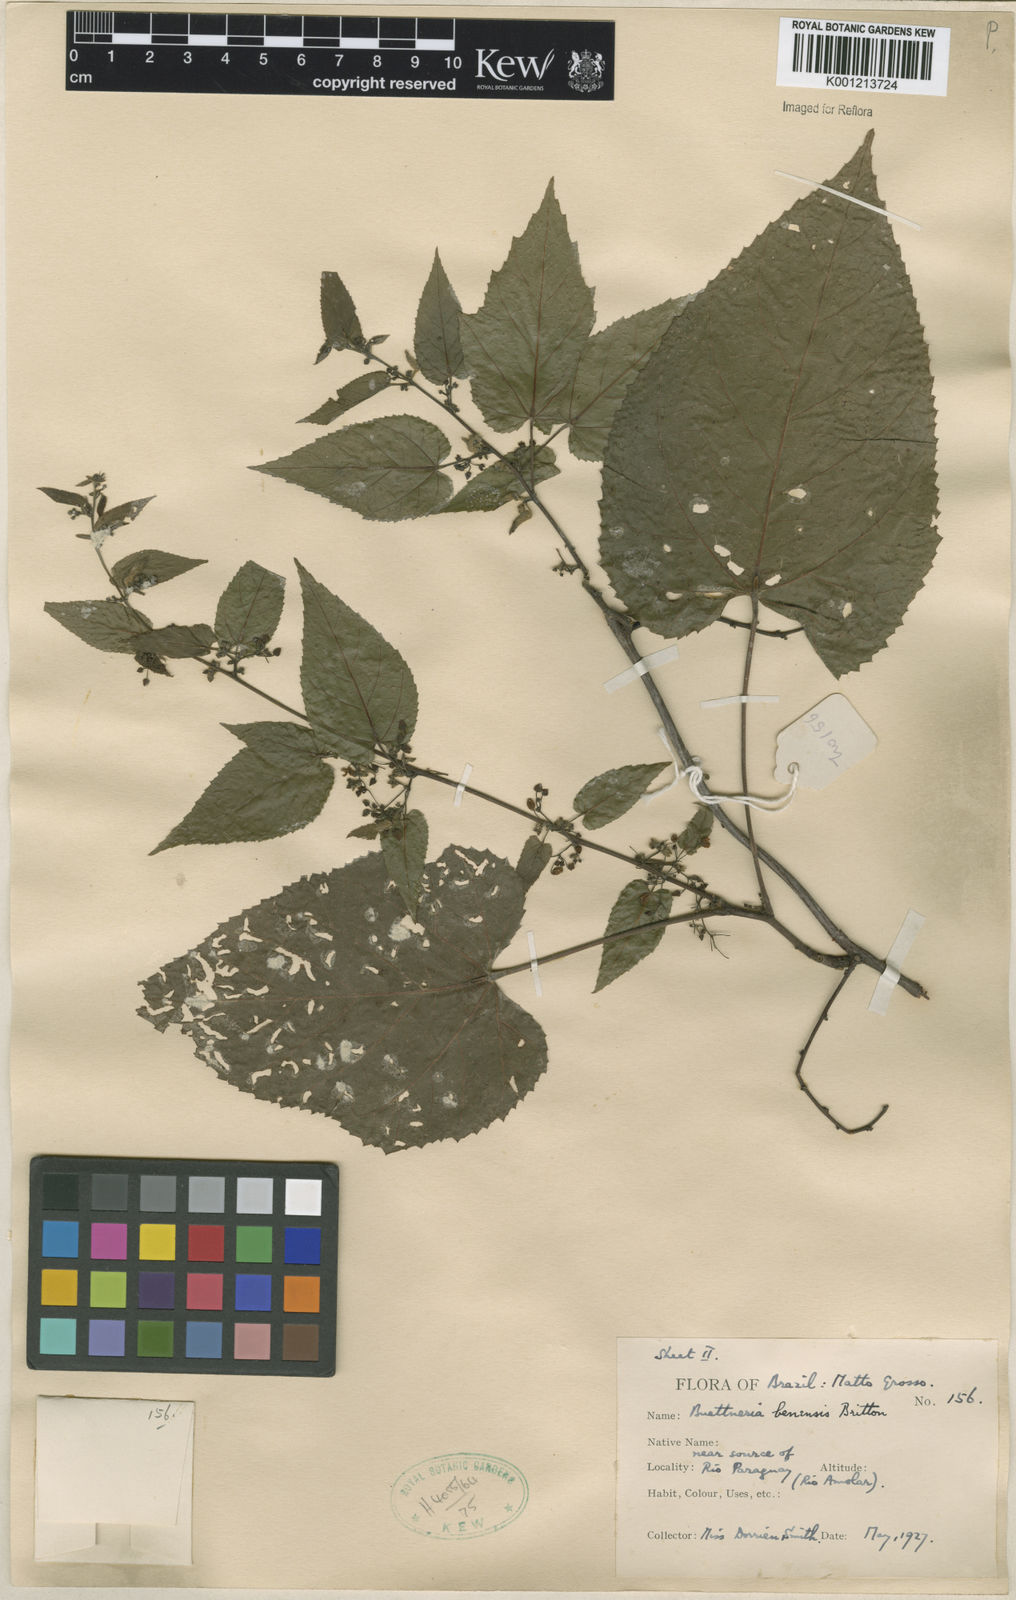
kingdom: Plantae
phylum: Tracheophyta
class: Magnoliopsida
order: Malvales
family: Malvaceae
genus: Byttneria
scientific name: Byttneria benensis
